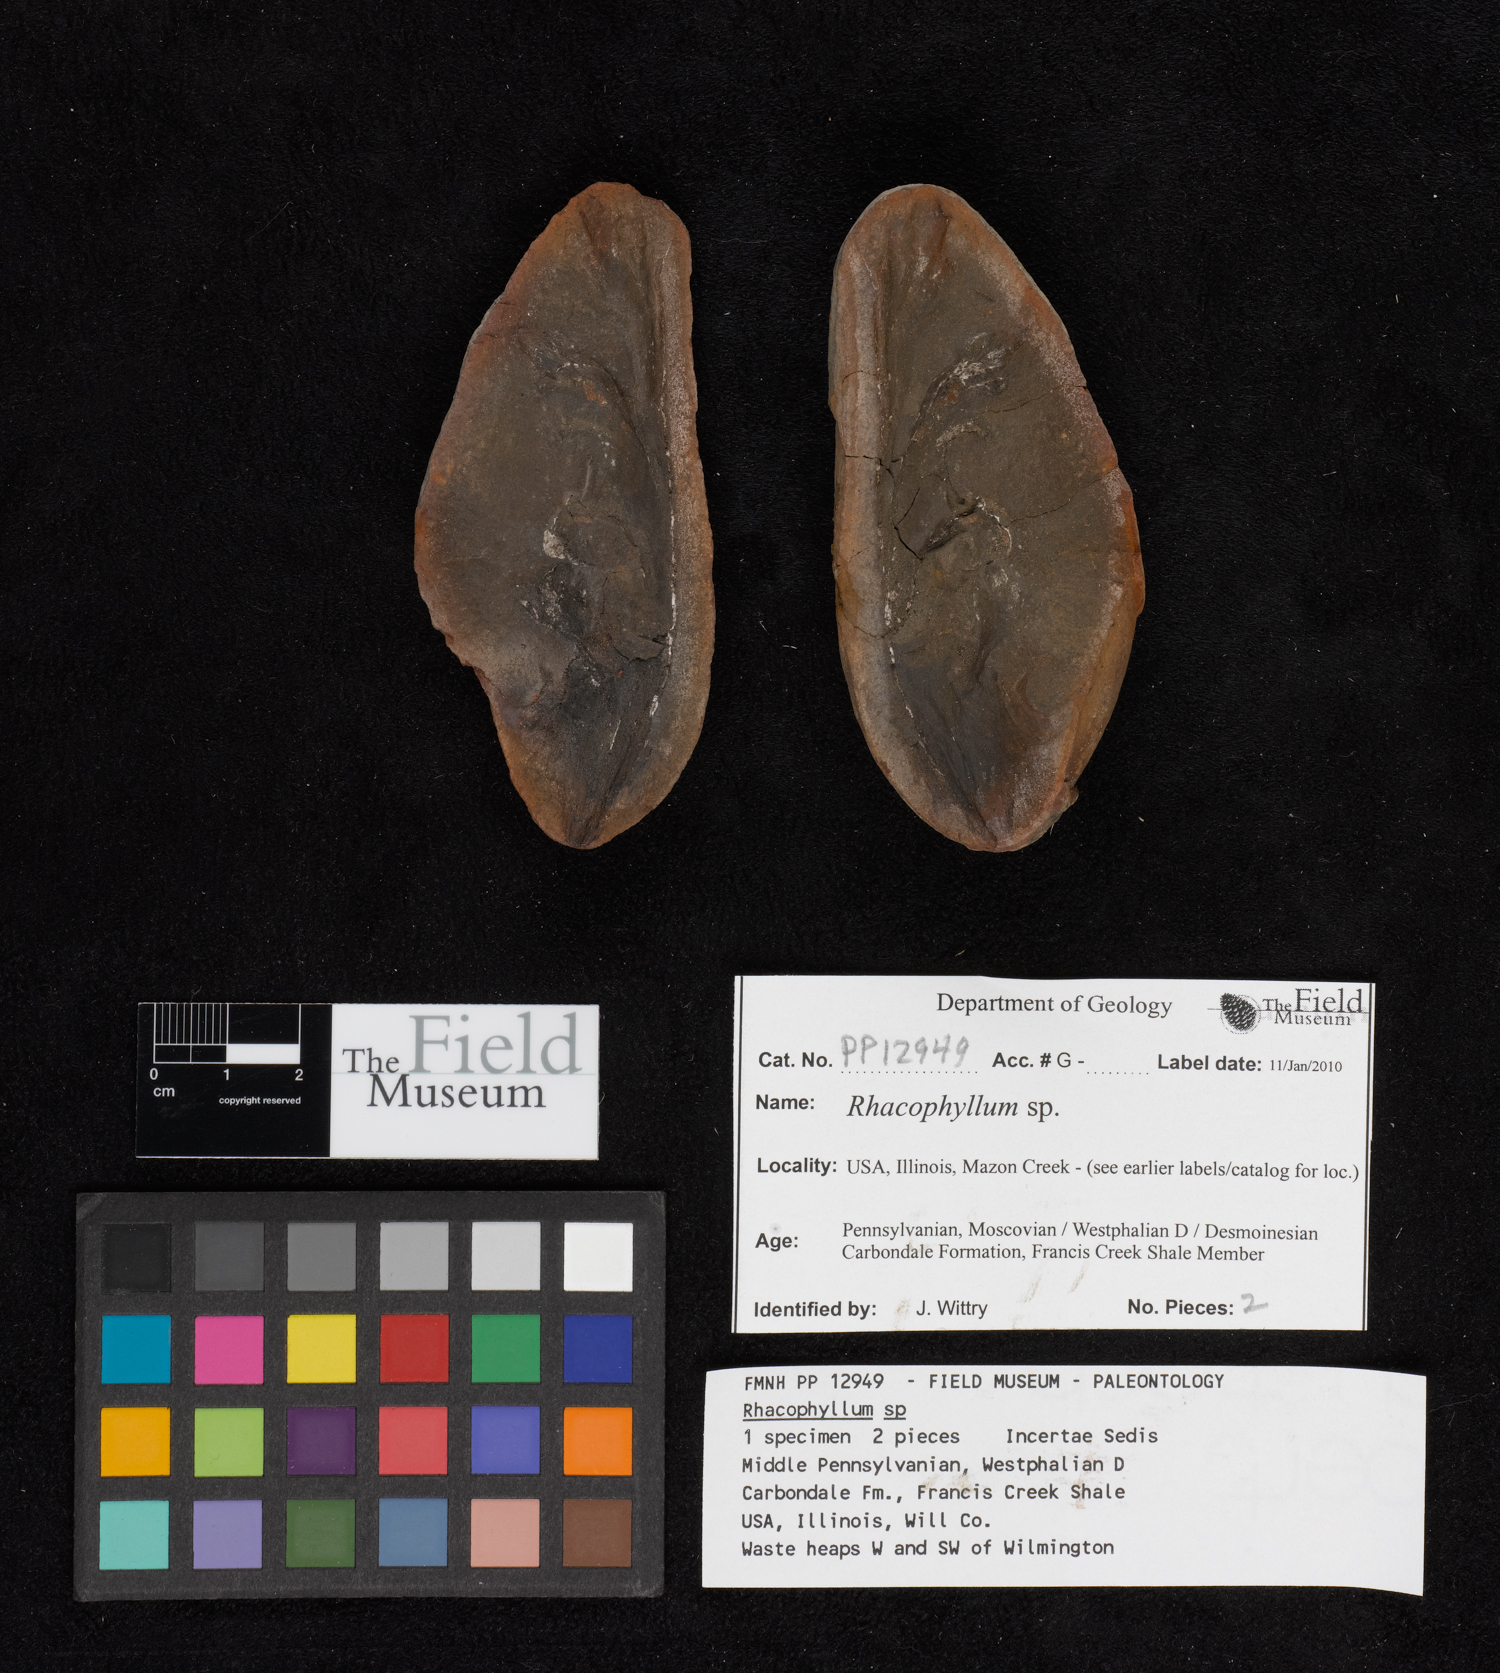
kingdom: Plantae
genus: Rhacophyllum
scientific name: Rhacophyllum
